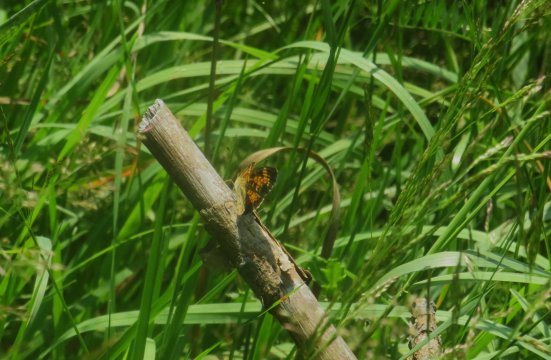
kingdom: Animalia
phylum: Arthropoda
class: Insecta
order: Lepidoptera
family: Nymphalidae
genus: Phyciodes
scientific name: Phyciodes tharos
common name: Pearl Crescent
